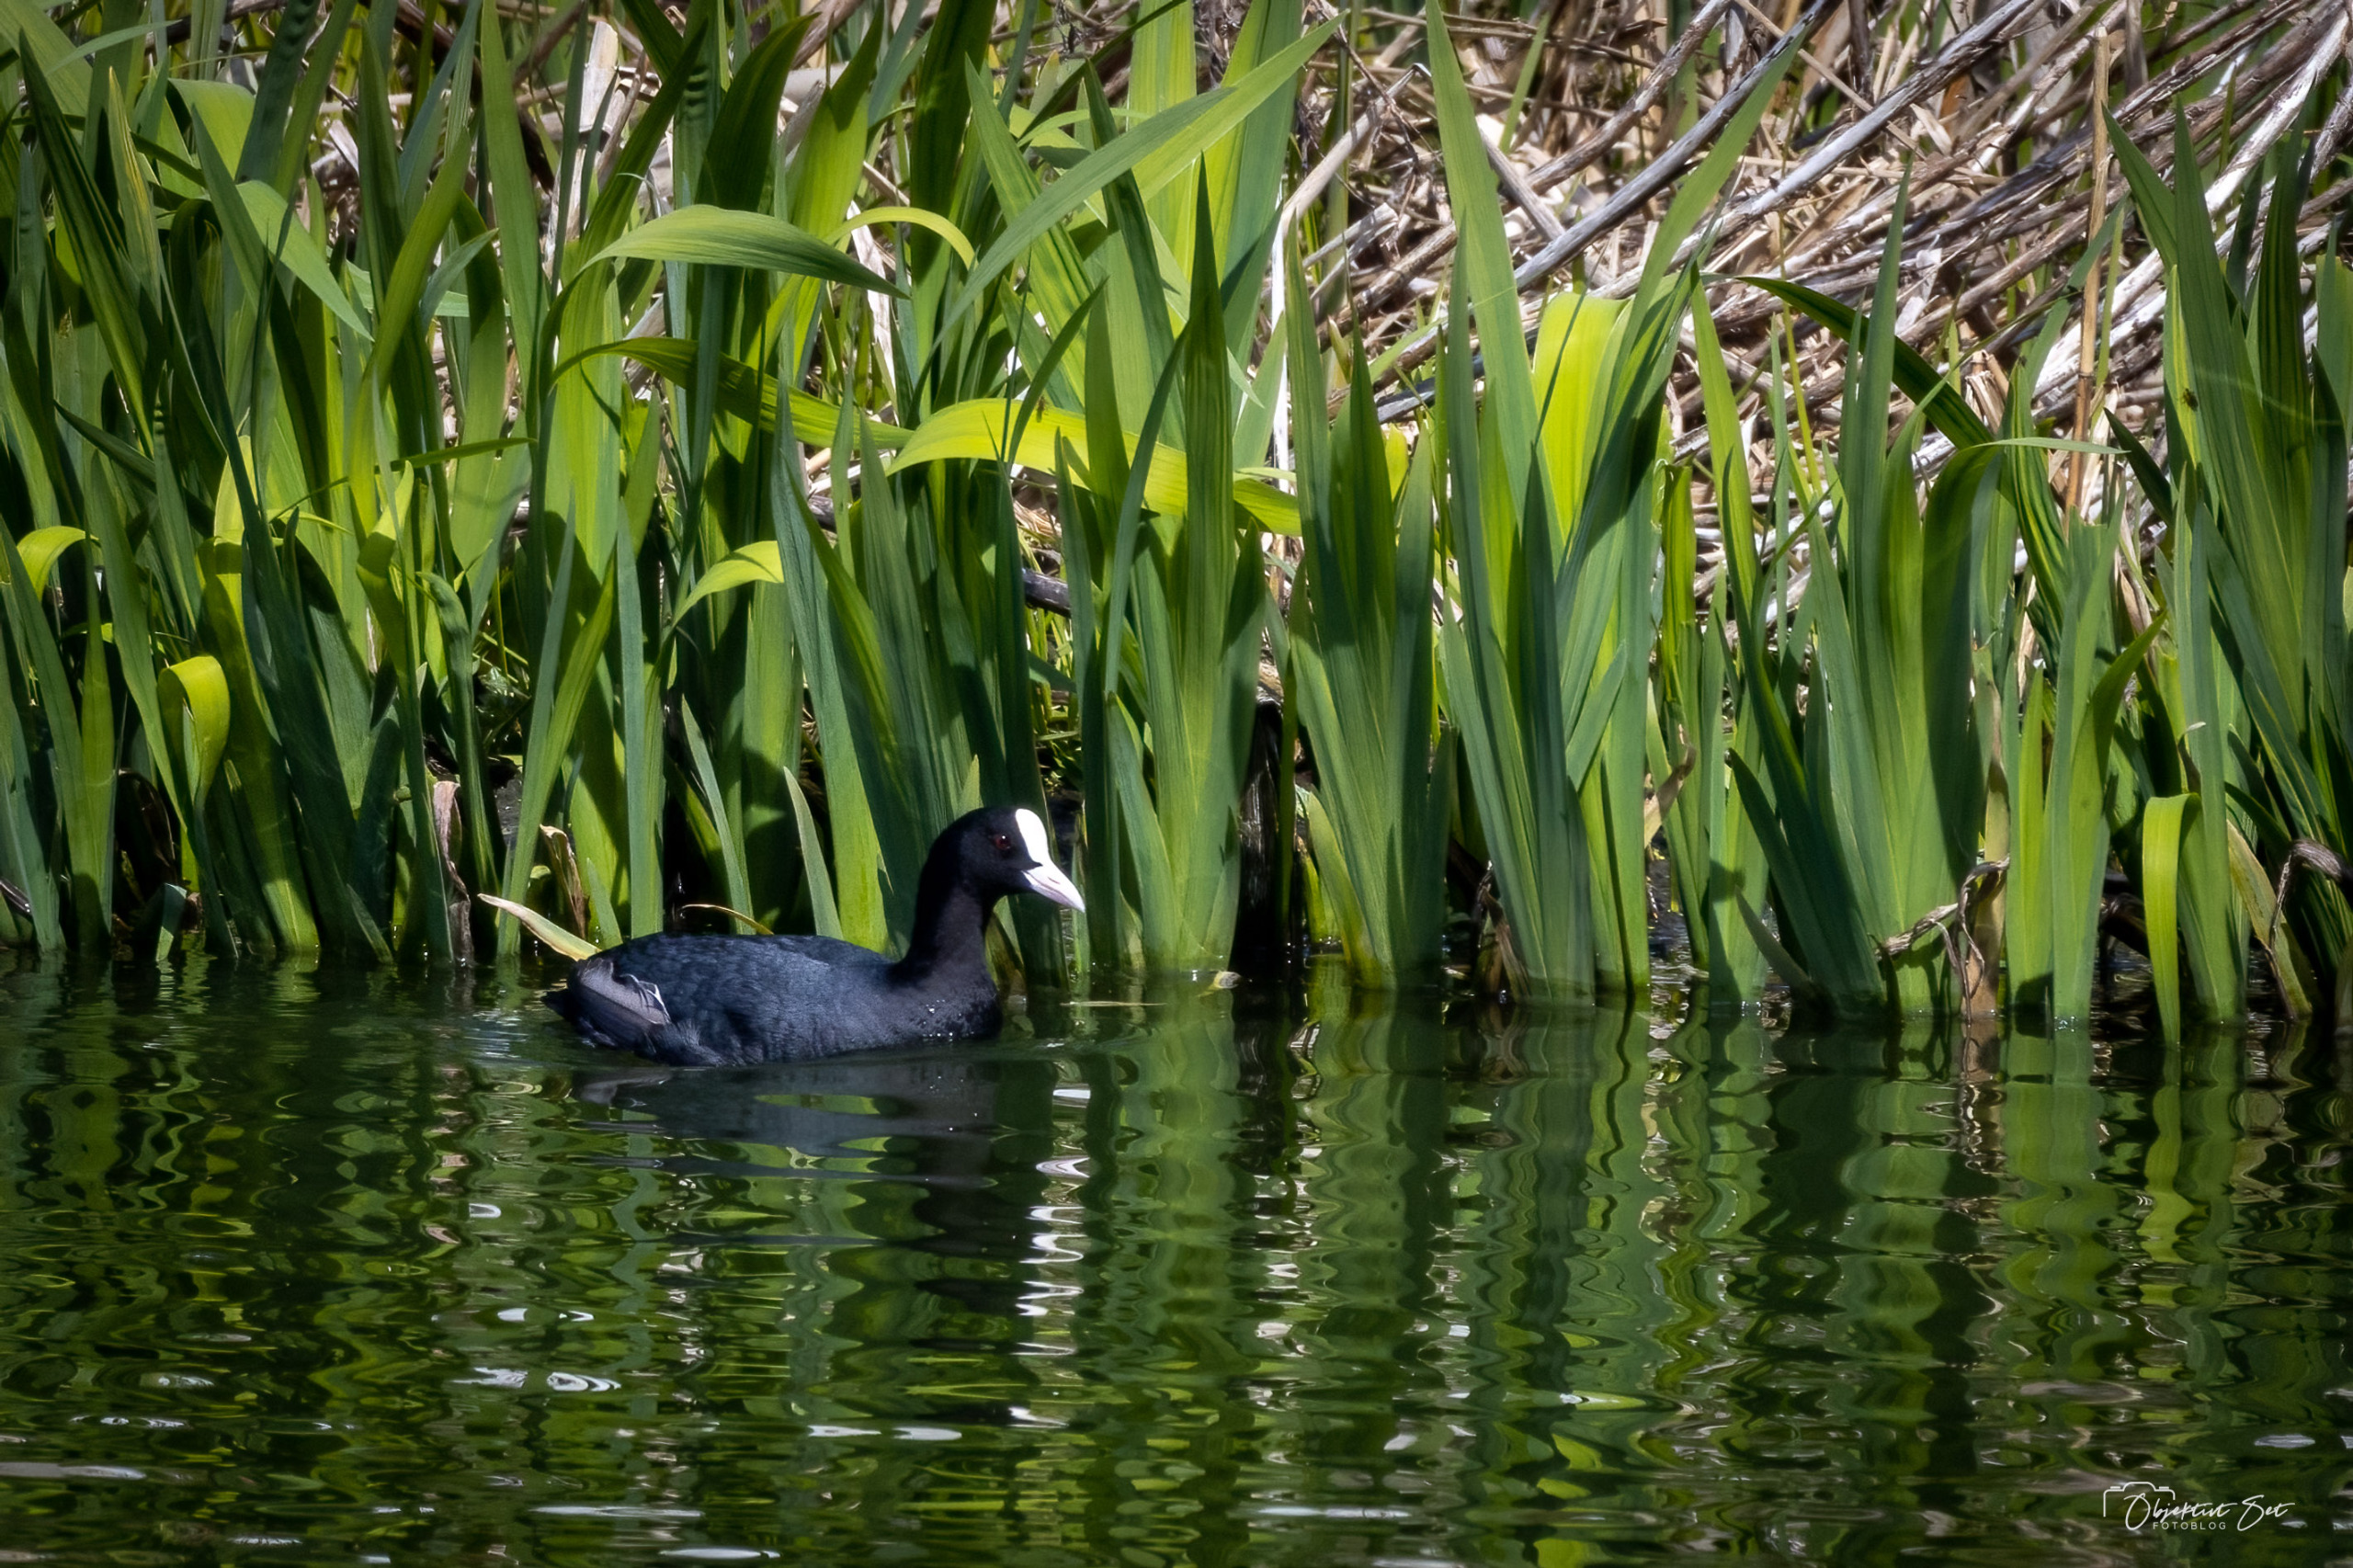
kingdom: Animalia
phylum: Chordata
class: Aves
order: Gruiformes
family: Rallidae
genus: Fulica
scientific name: Fulica atra
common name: Blishøne
